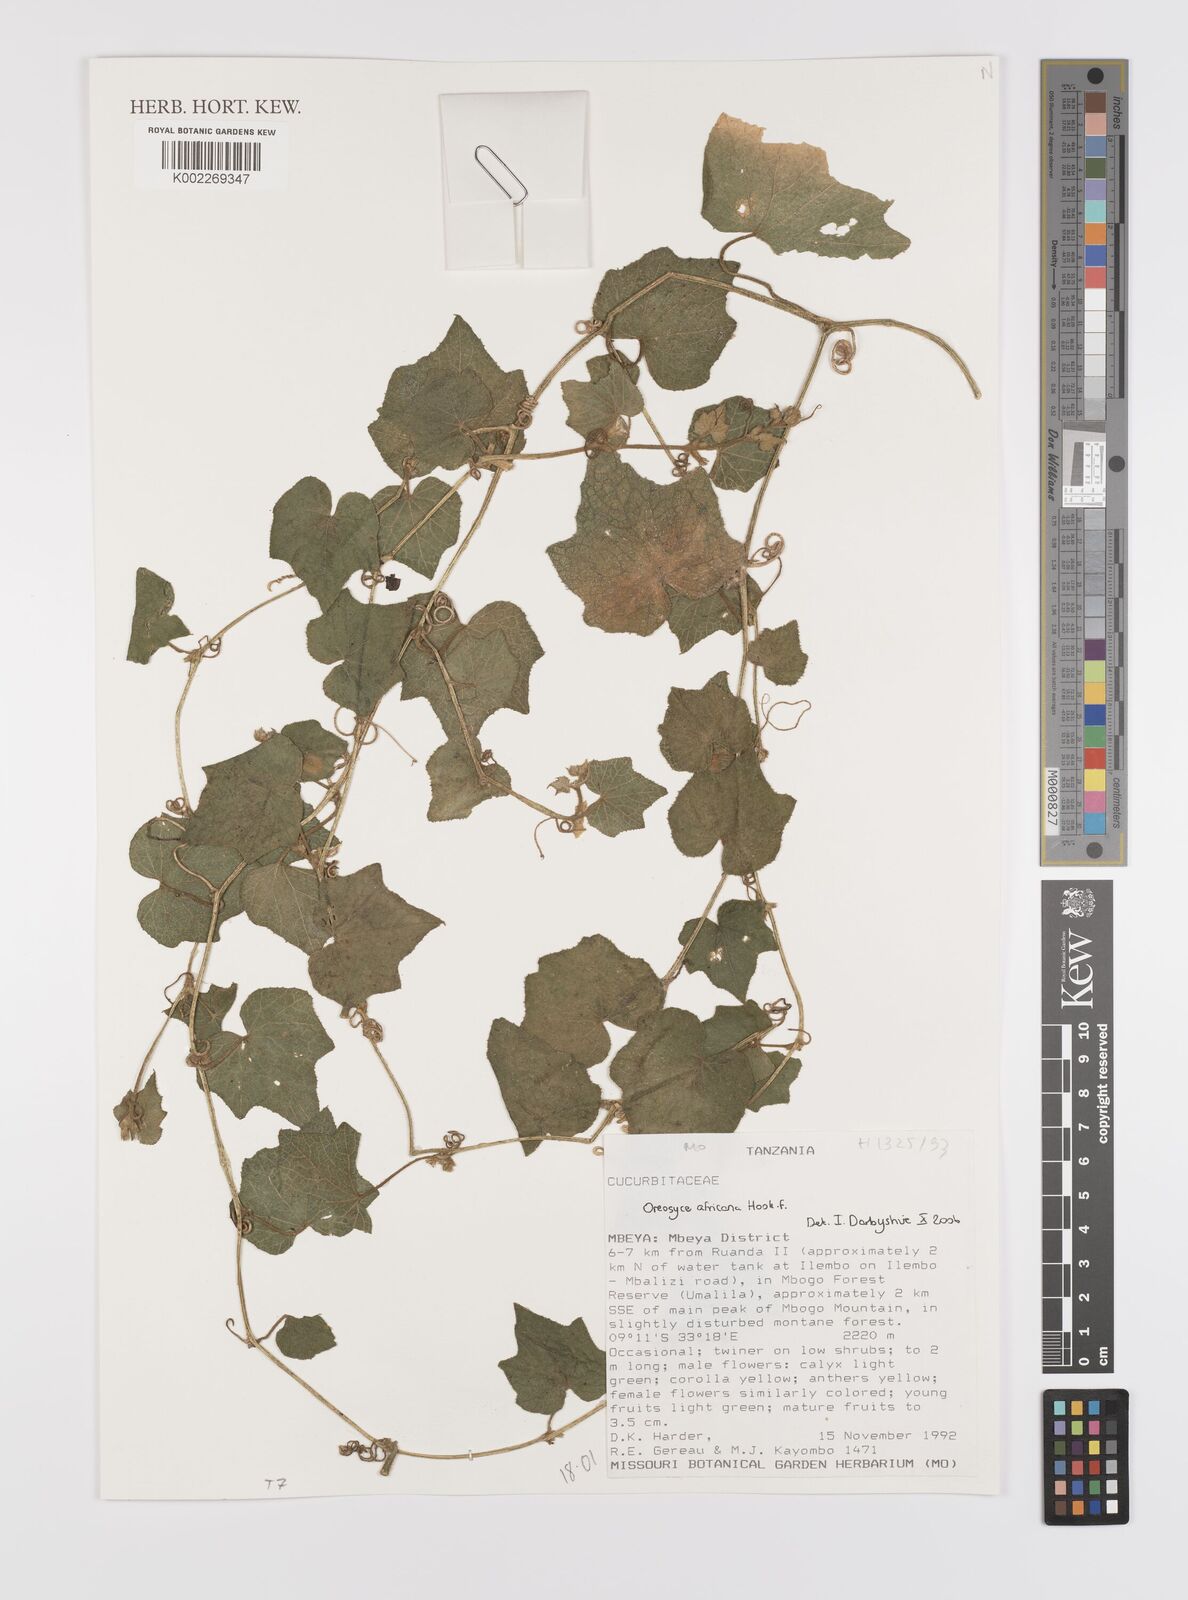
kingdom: Plantae
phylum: Tracheophyta
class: Magnoliopsida
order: Cucurbitales
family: Cucurbitaceae
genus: Cucumis
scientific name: Cucumis oreosyce
